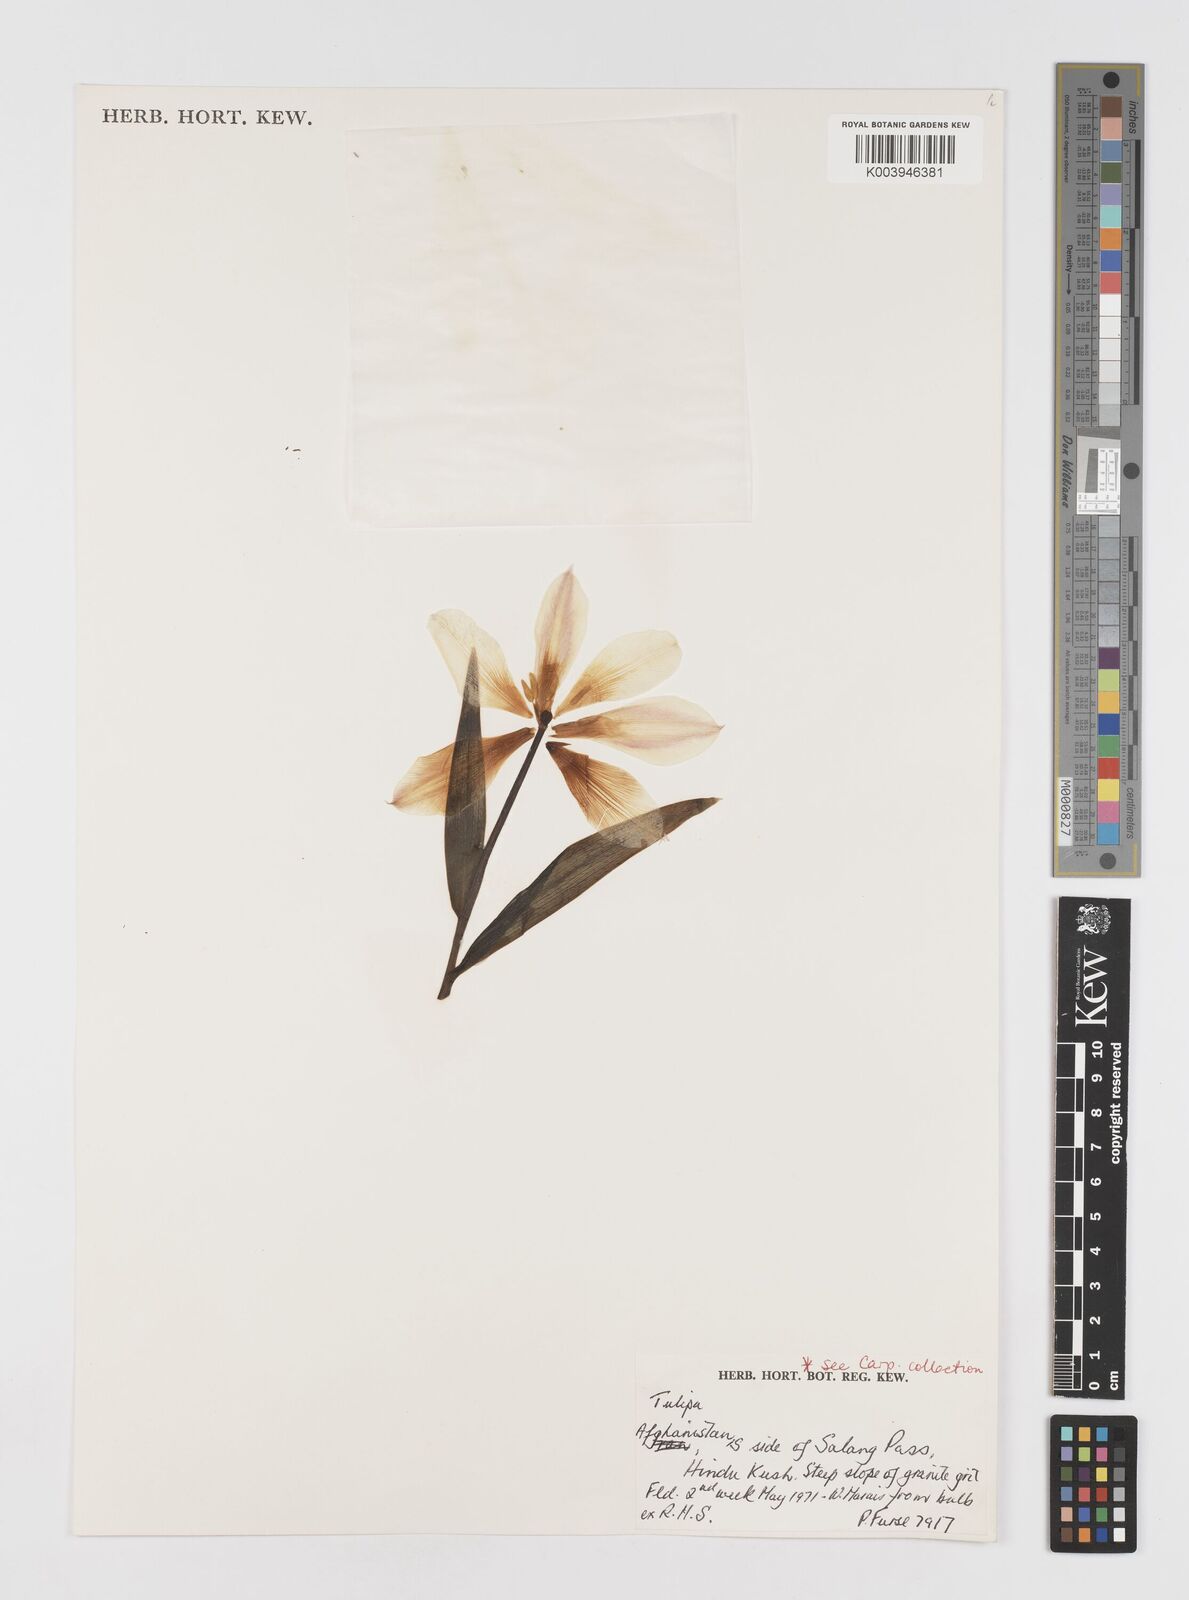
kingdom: Plantae
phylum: Tracheophyta
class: Liliopsida
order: Liliales
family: Liliaceae
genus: Tulipa
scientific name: Tulipa kolpakowskiana
